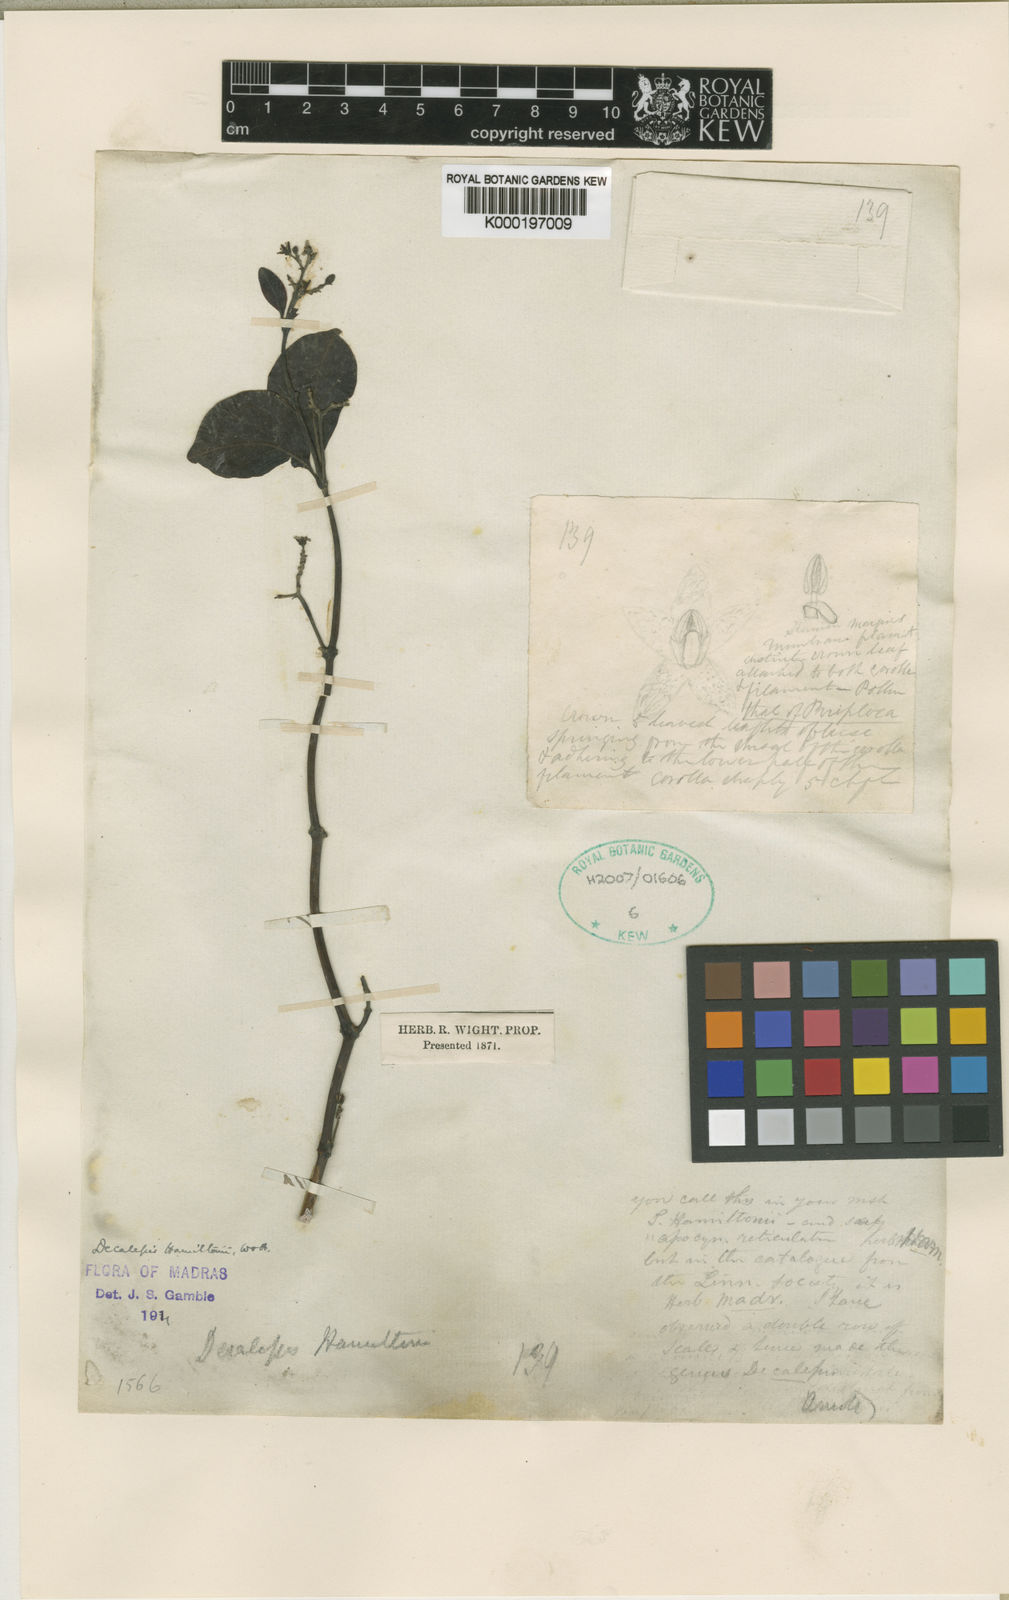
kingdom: Plantae
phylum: Tracheophyta
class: Magnoliopsida
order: Gentianales
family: Apocynaceae
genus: Decalepis
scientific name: Decalepis hamiltonii
